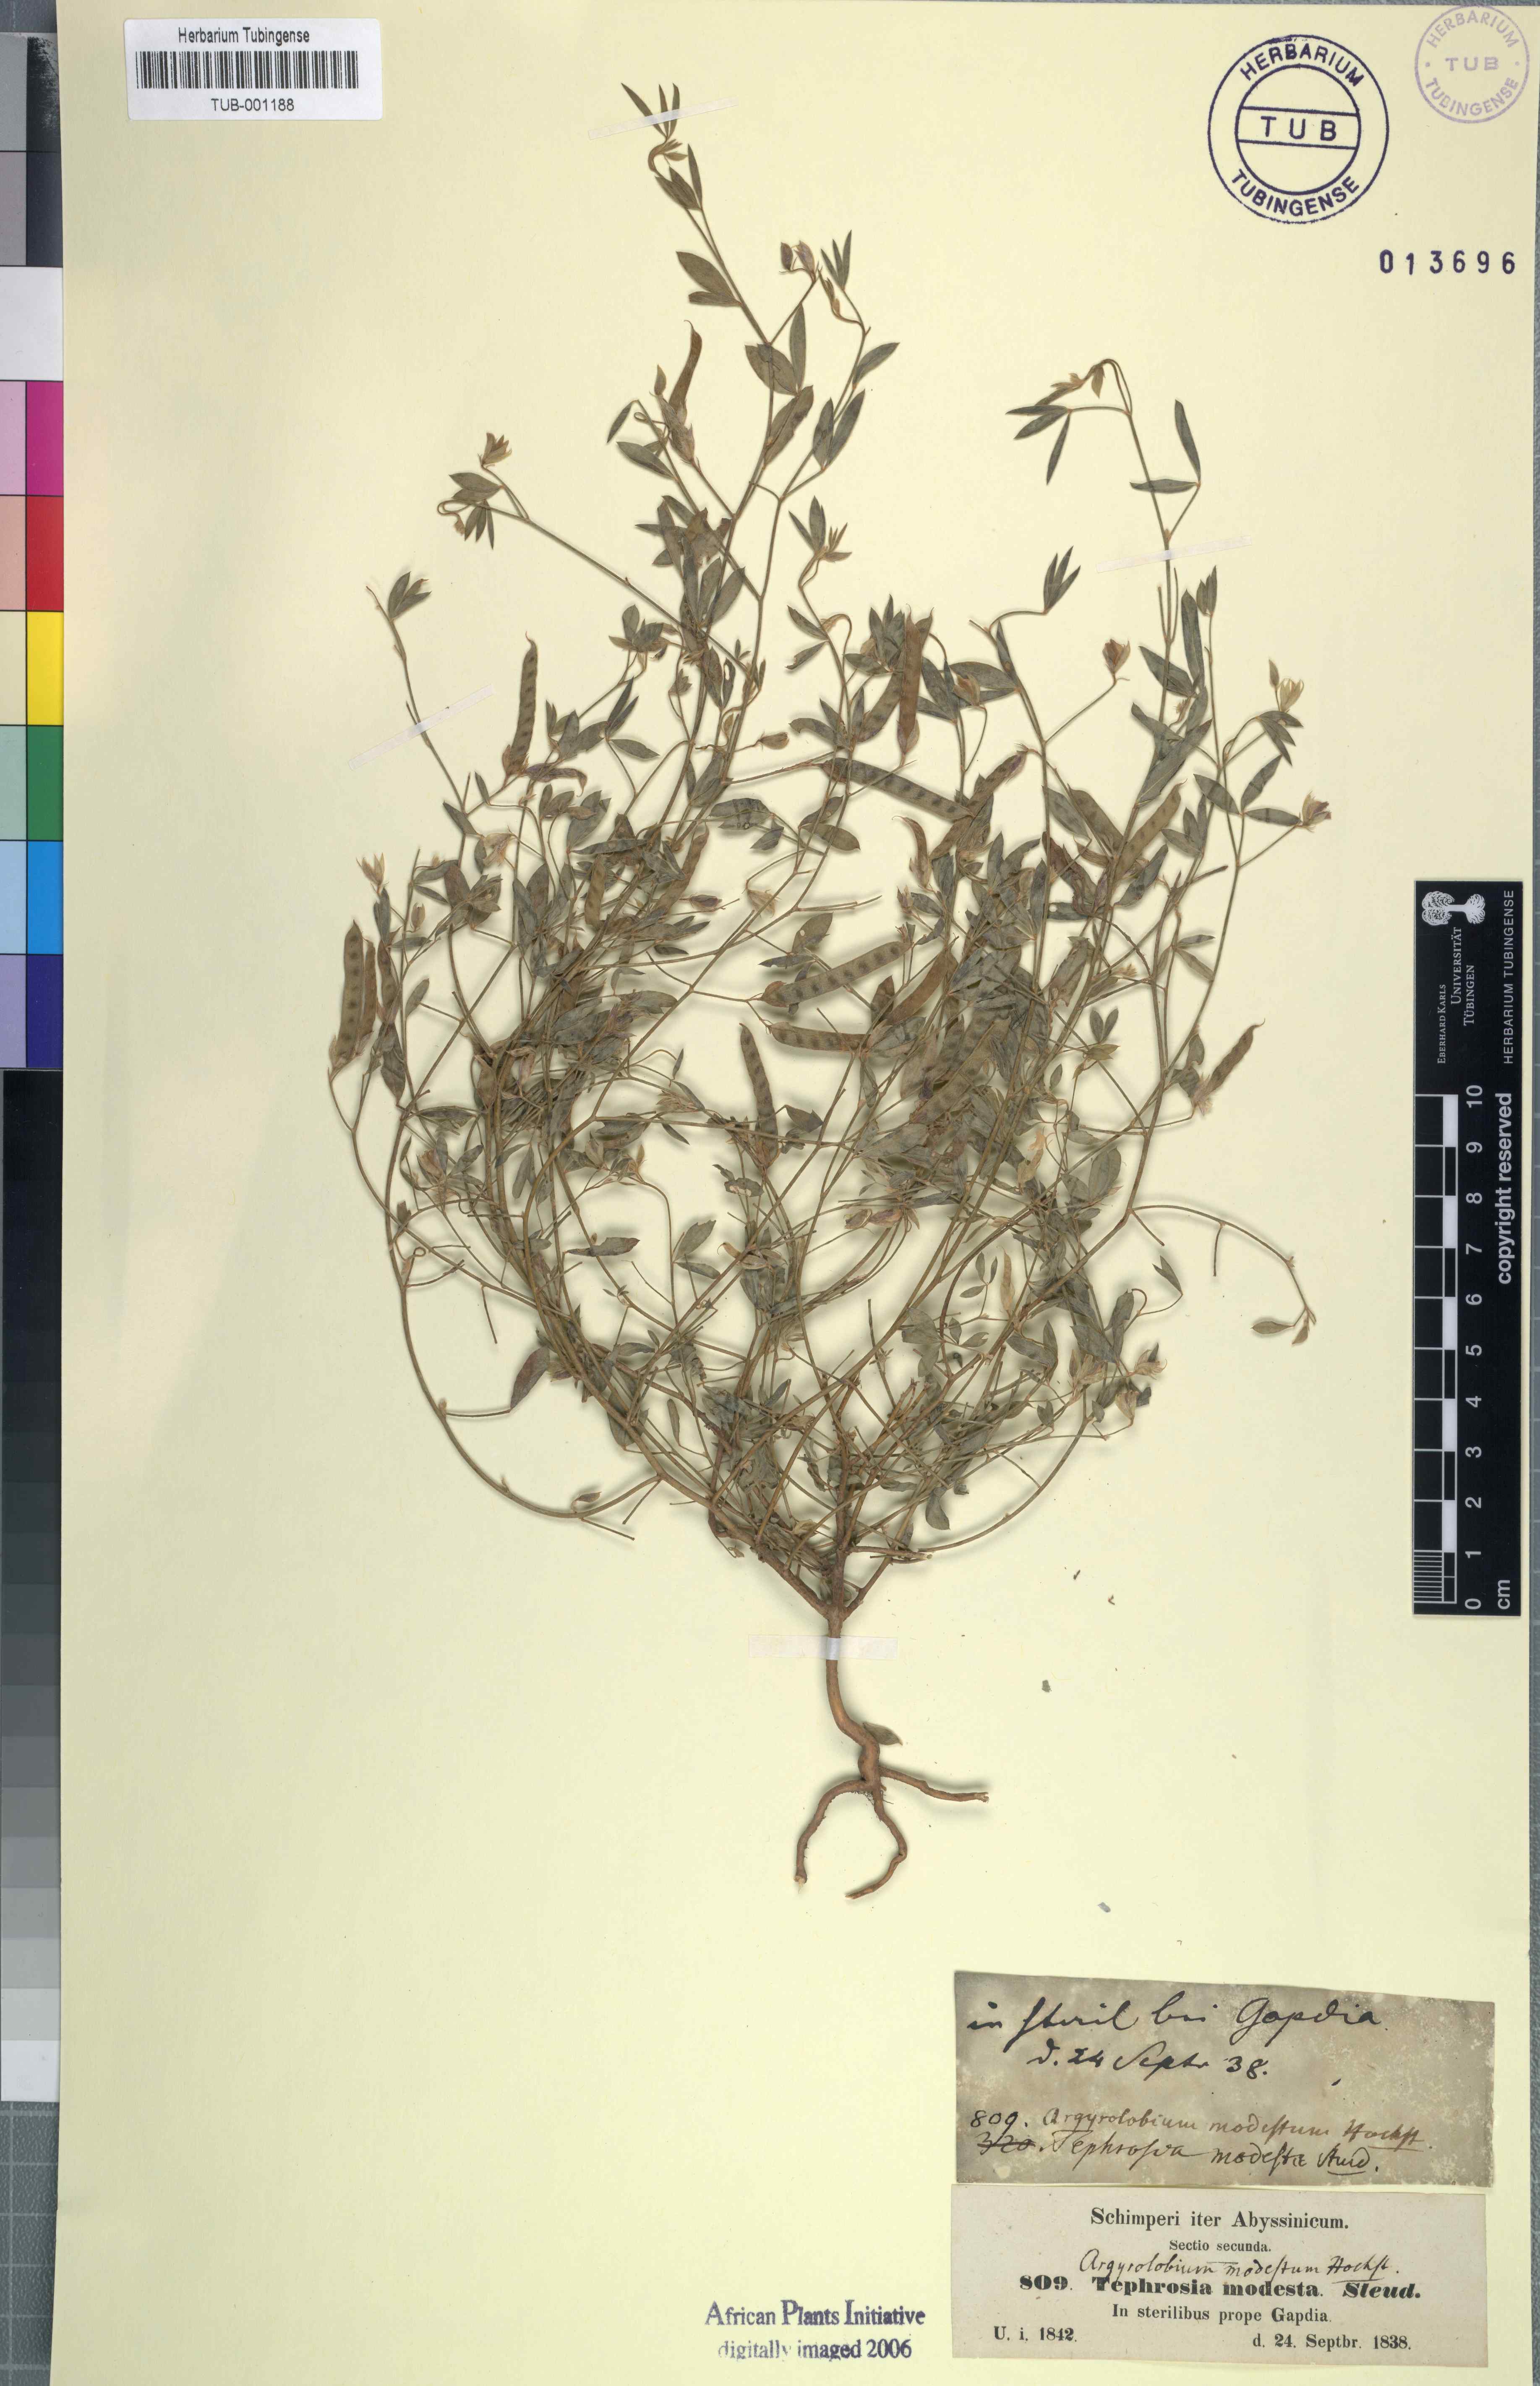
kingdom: Plantae
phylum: Tracheophyta
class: Magnoliopsida
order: Fabales
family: Fabaceae
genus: Argyrolobium
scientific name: Argyrolobium arabicum
